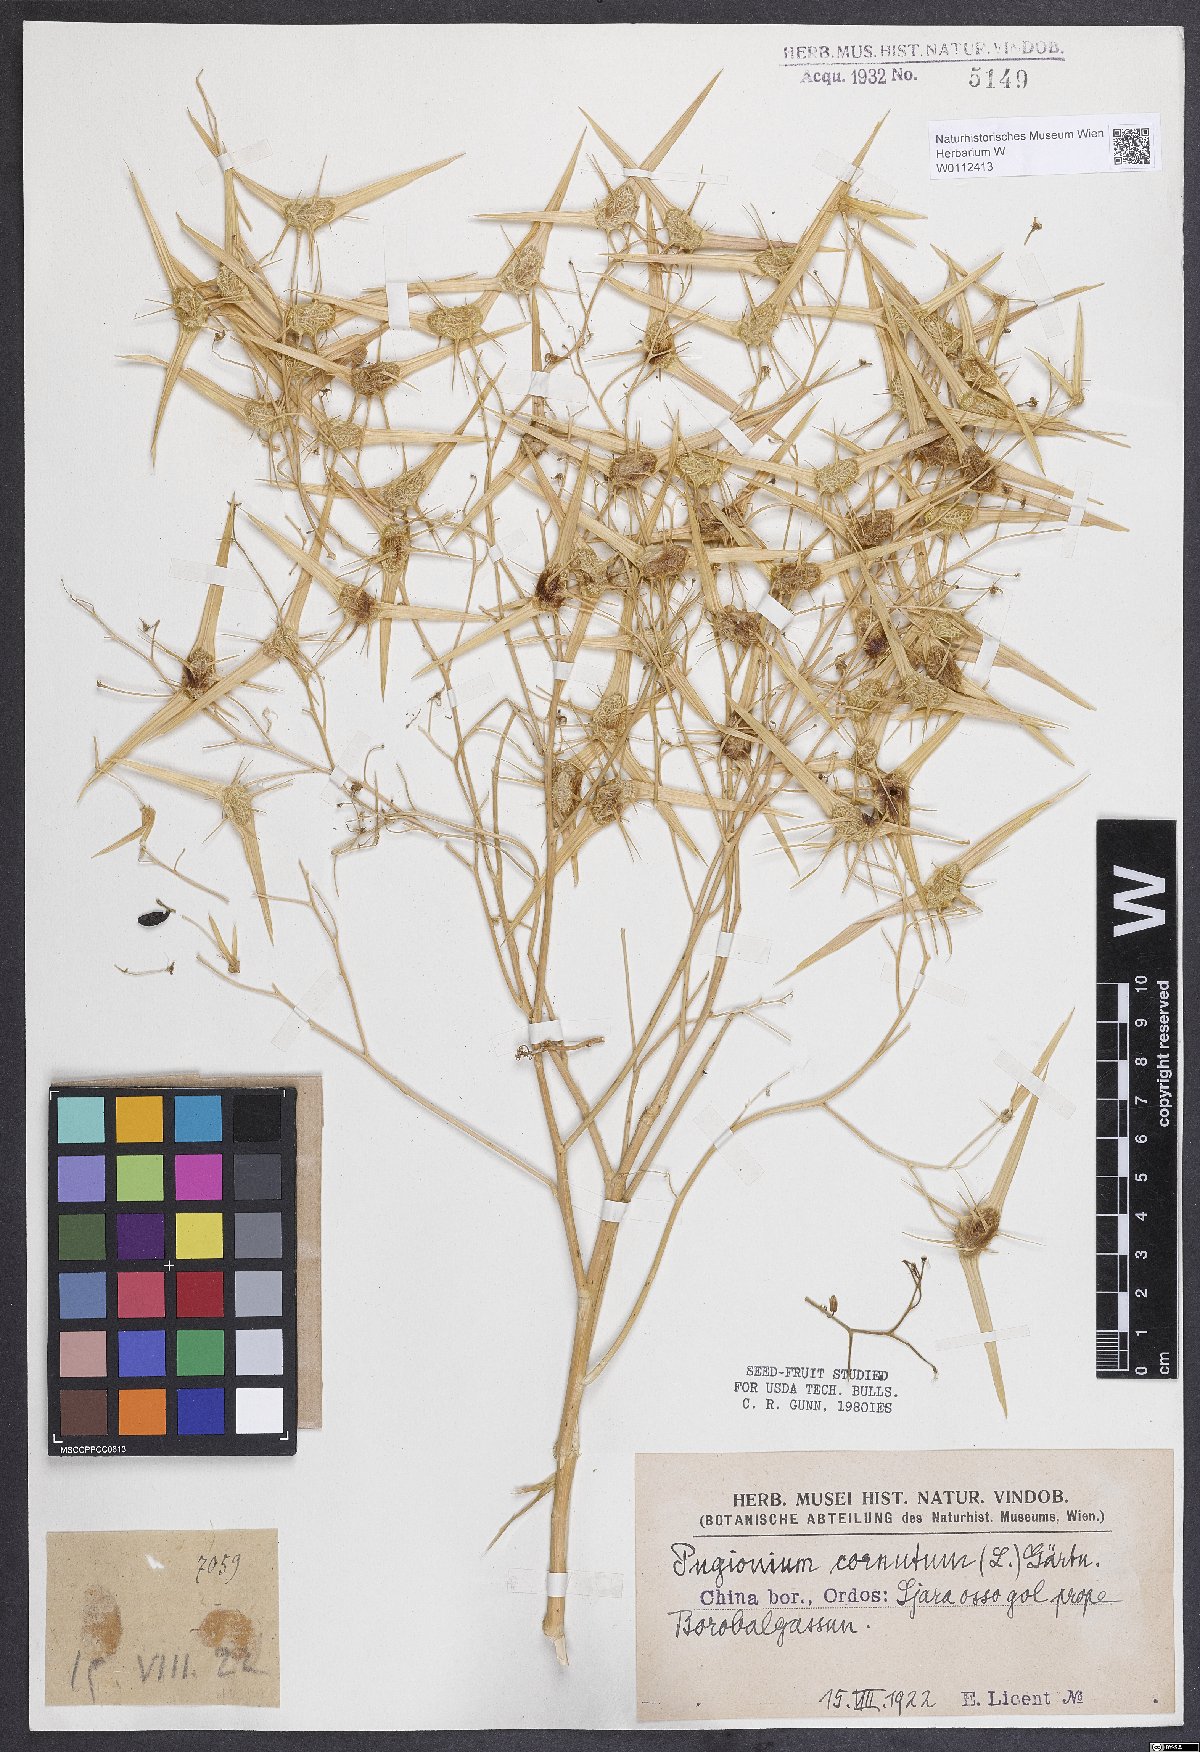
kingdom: Plantae
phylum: Tracheophyta
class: Magnoliopsida
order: Brassicales
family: Brassicaceae
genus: Pugionium
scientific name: Pugionium cornutum
